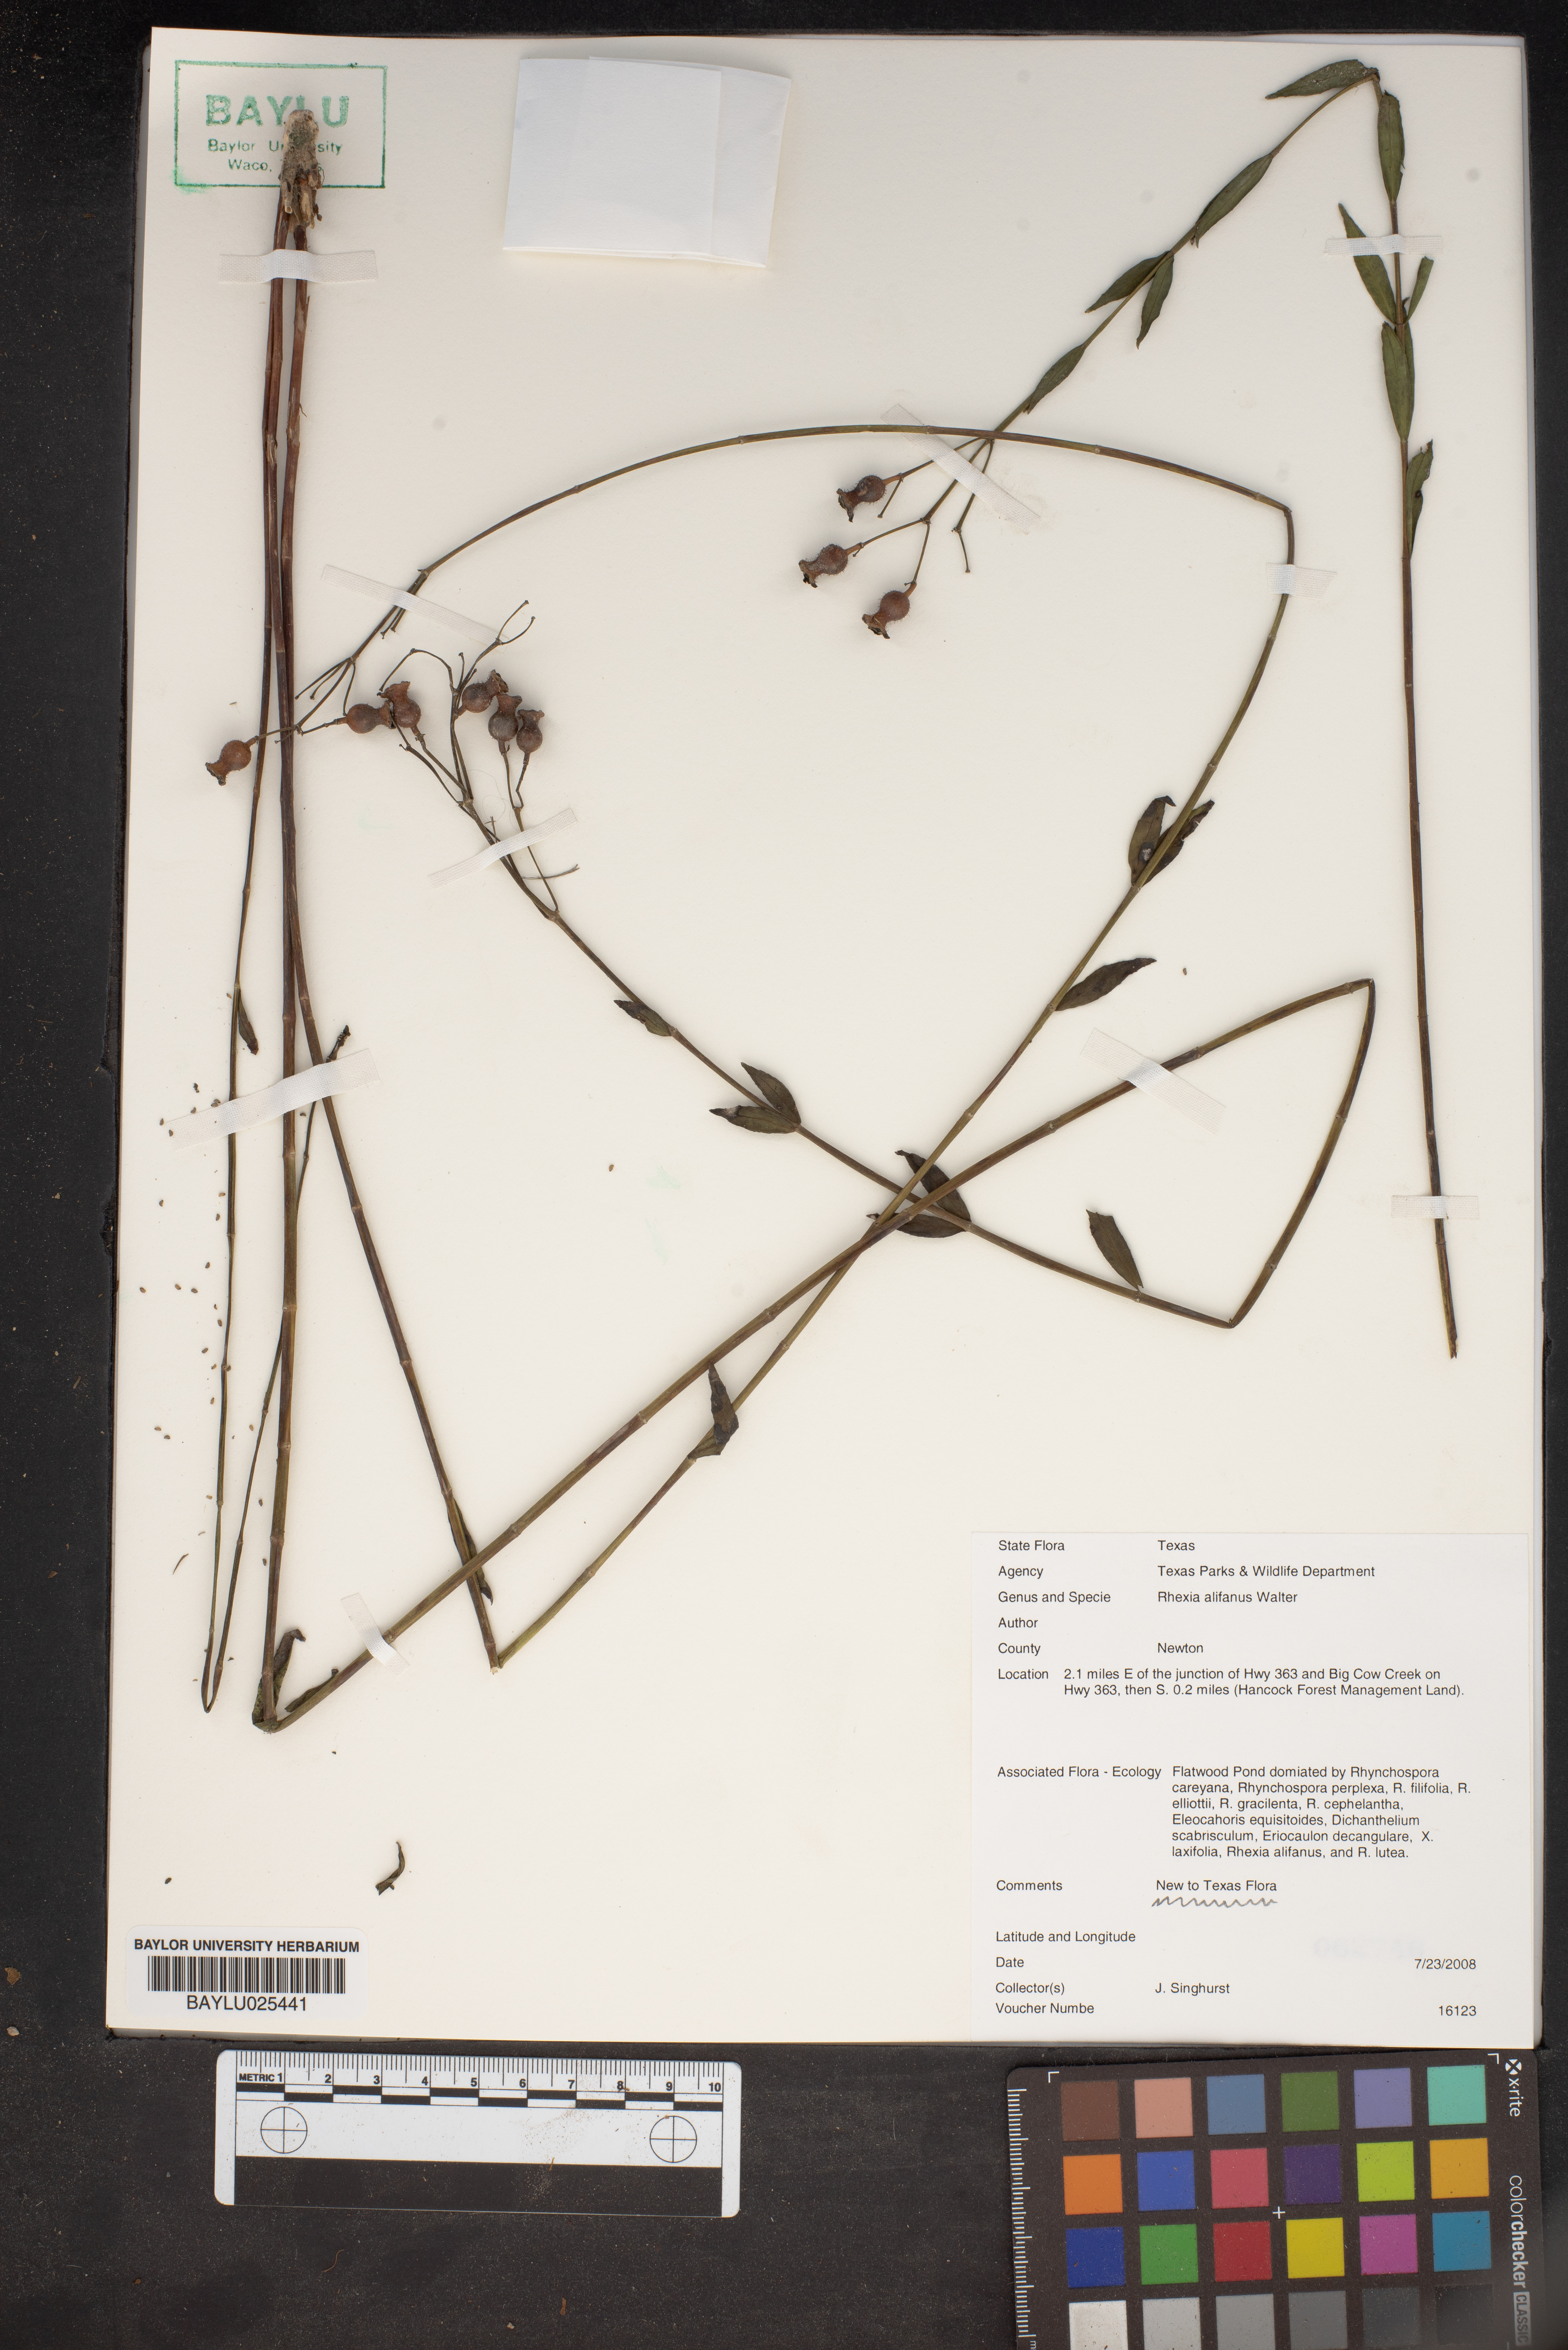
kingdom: Plantae
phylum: Tracheophyta
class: Magnoliopsida
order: Myrtales
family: Melastomataceae
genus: Rhexia
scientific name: Rhexia alifanus
